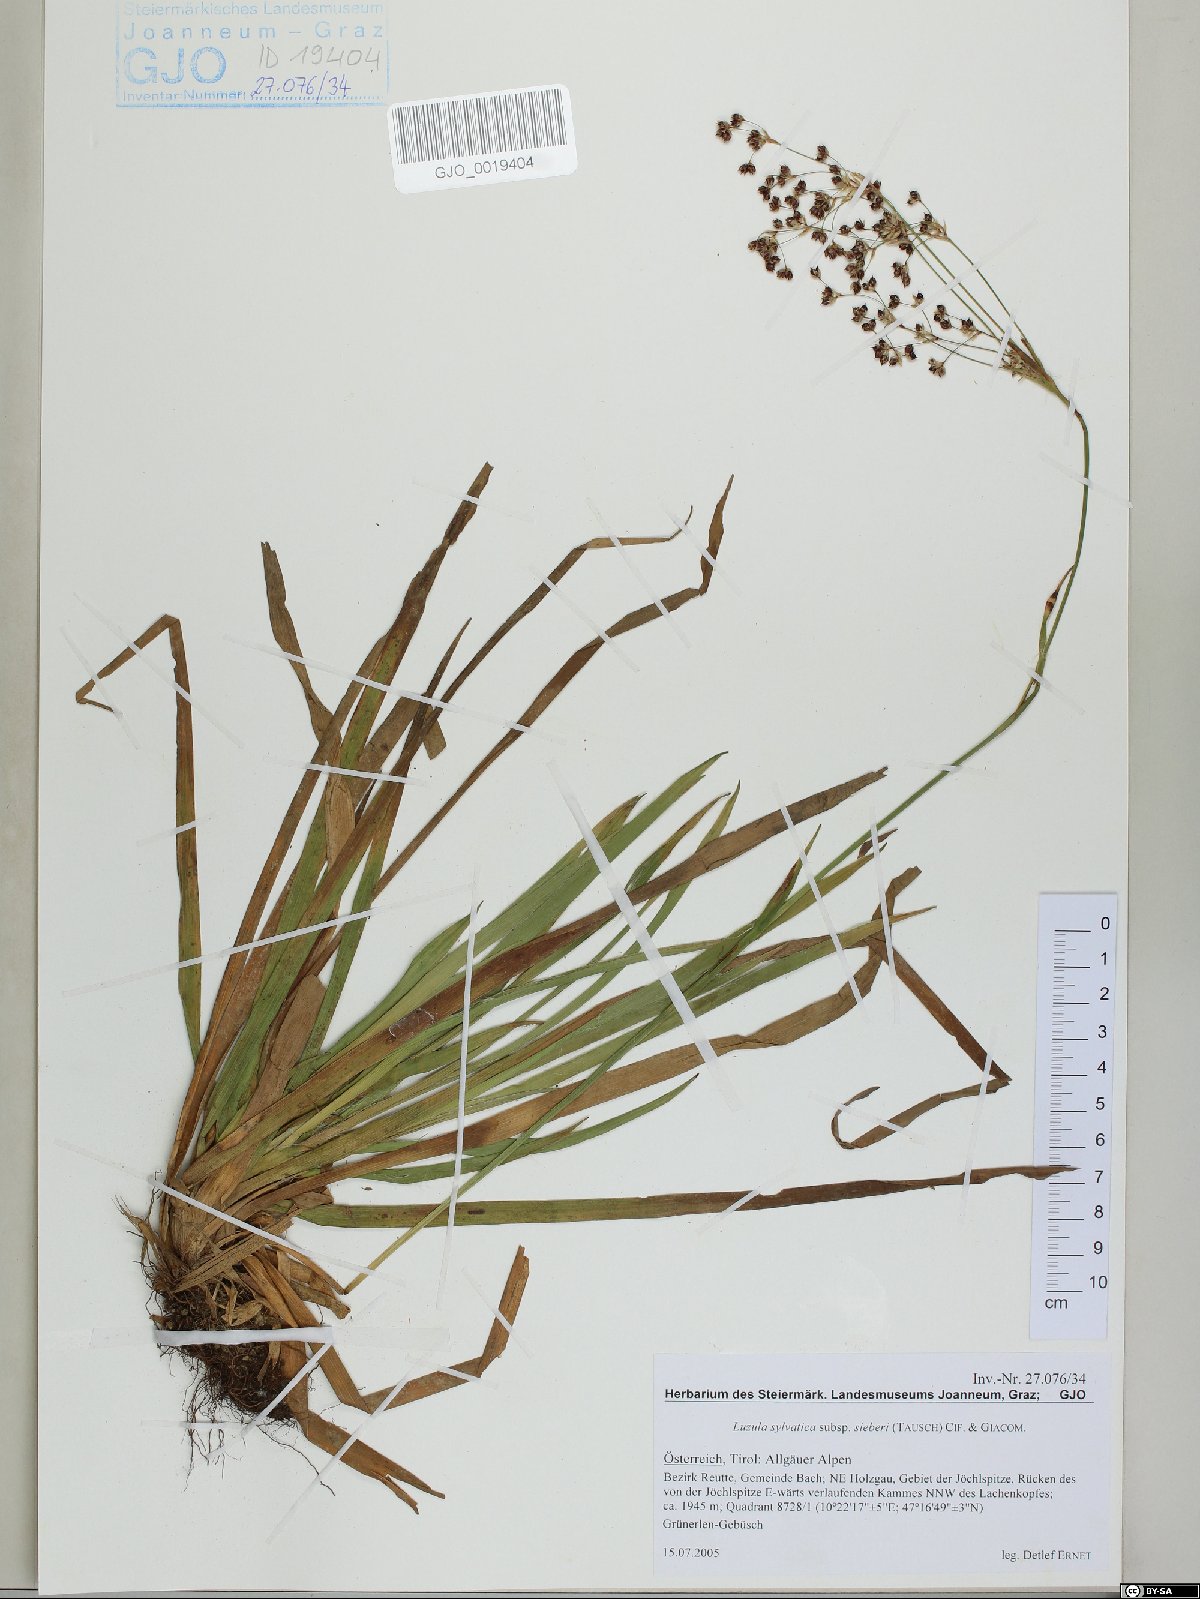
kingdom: Plantae
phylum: Tracheophyta
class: Liliopsida
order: Poales
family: Juncaceae
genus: Luzula
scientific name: Luzula sylvatica
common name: Great wood-rush
